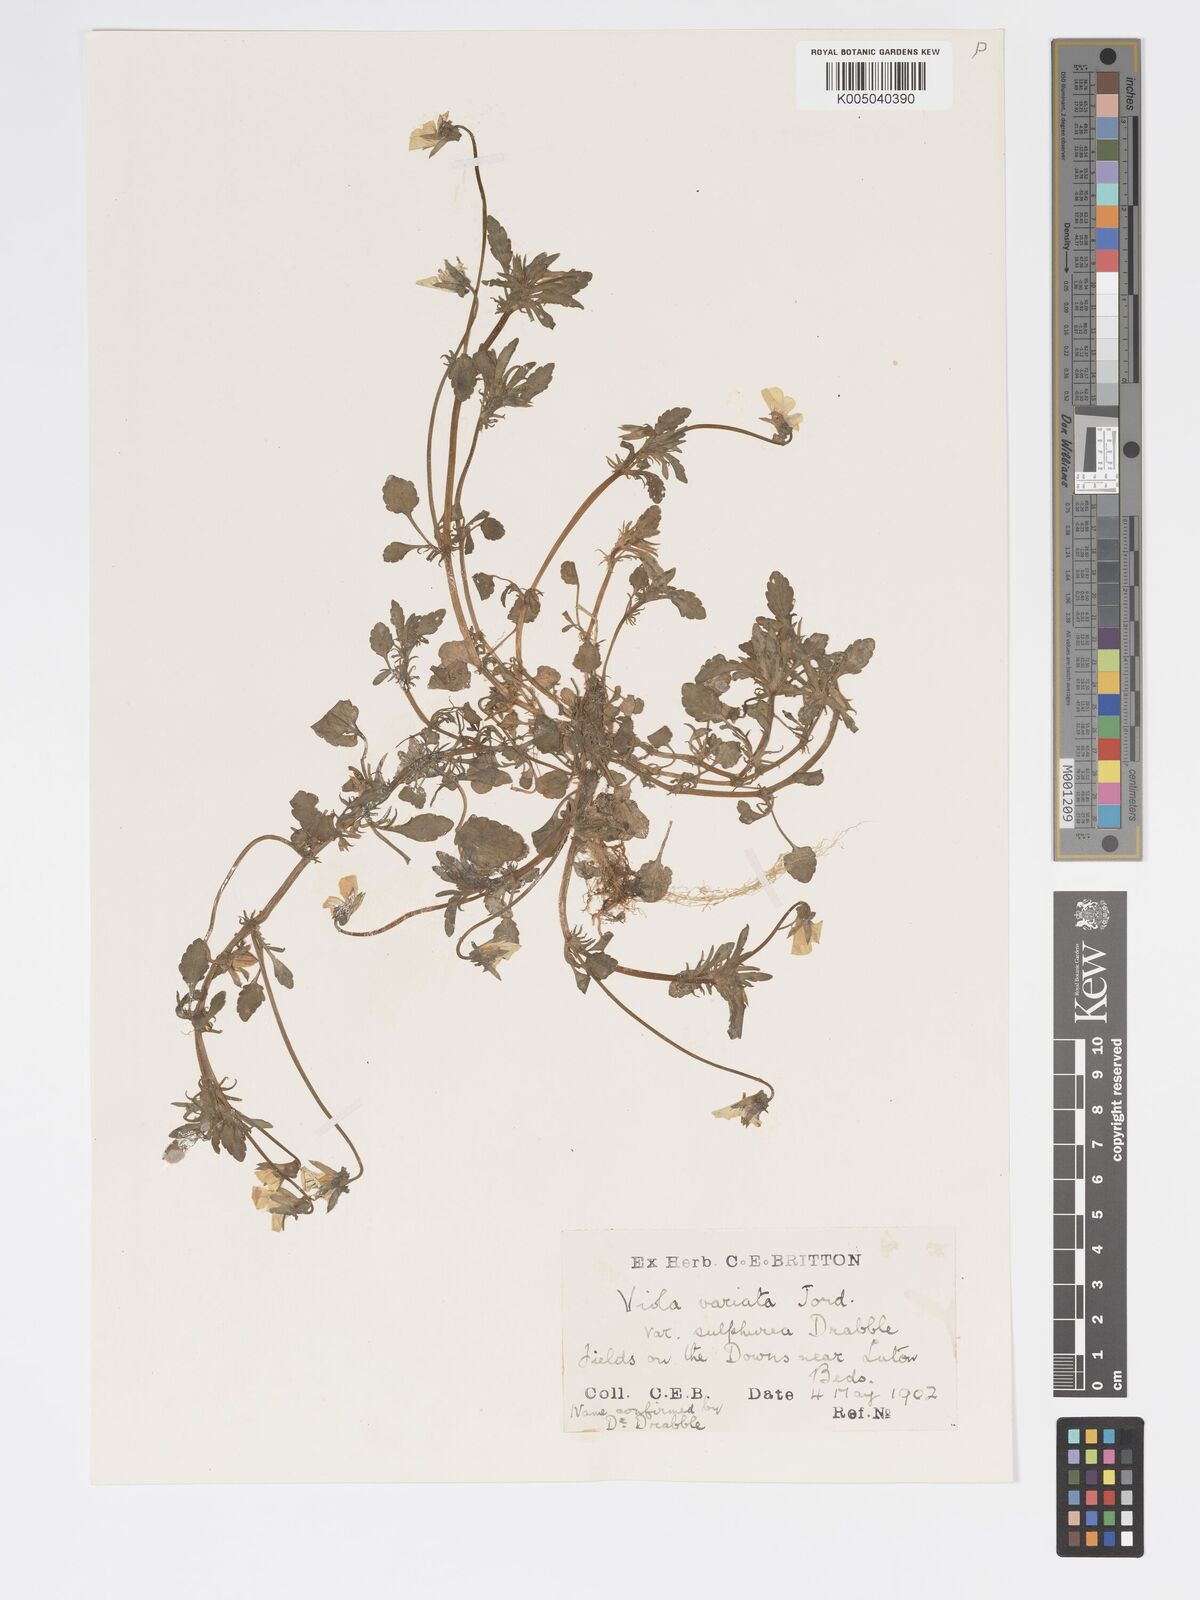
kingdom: Plantae
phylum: Tracheophyta
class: Magnoliopsida
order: Malpighiales
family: Violaceae
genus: Viola
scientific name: Viola arvensis
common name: Field pansy
